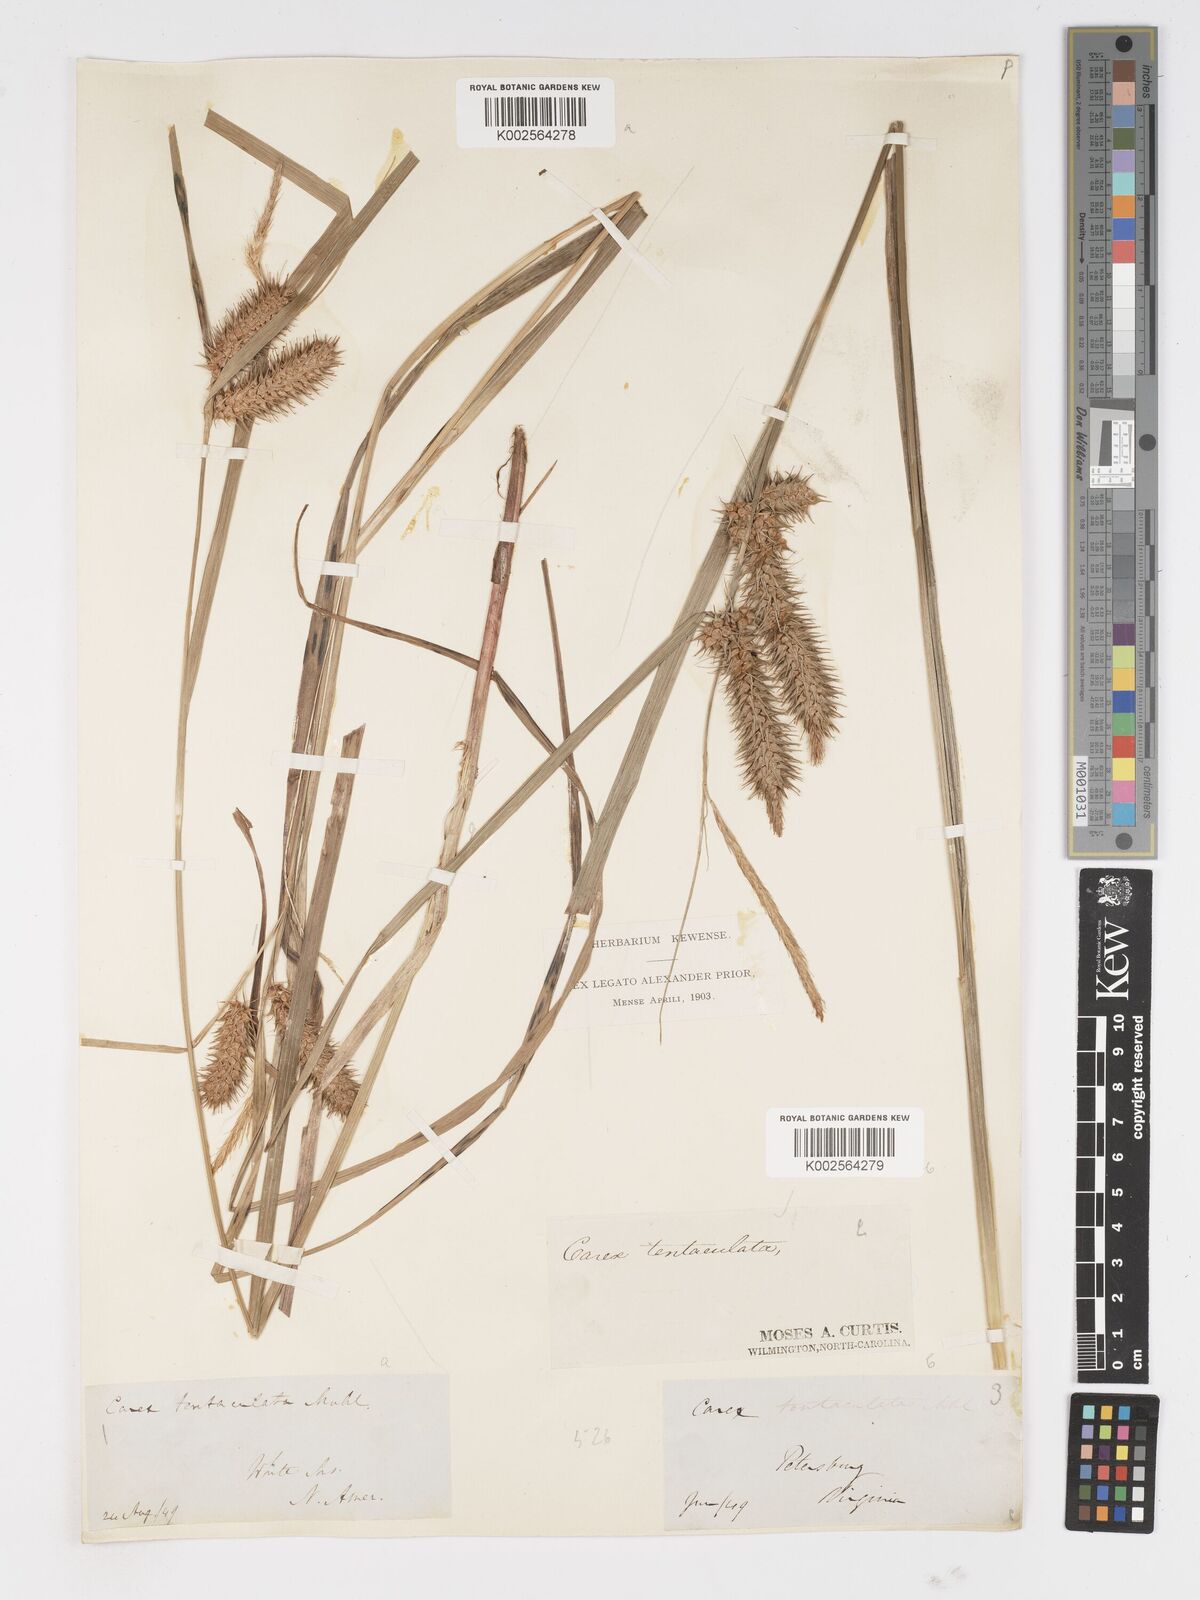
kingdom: Plantae
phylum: Tracheophyta
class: Liliopsida
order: Poales
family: Cyperaceae
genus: Carex
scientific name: Carex lurida
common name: Sallow sedge
